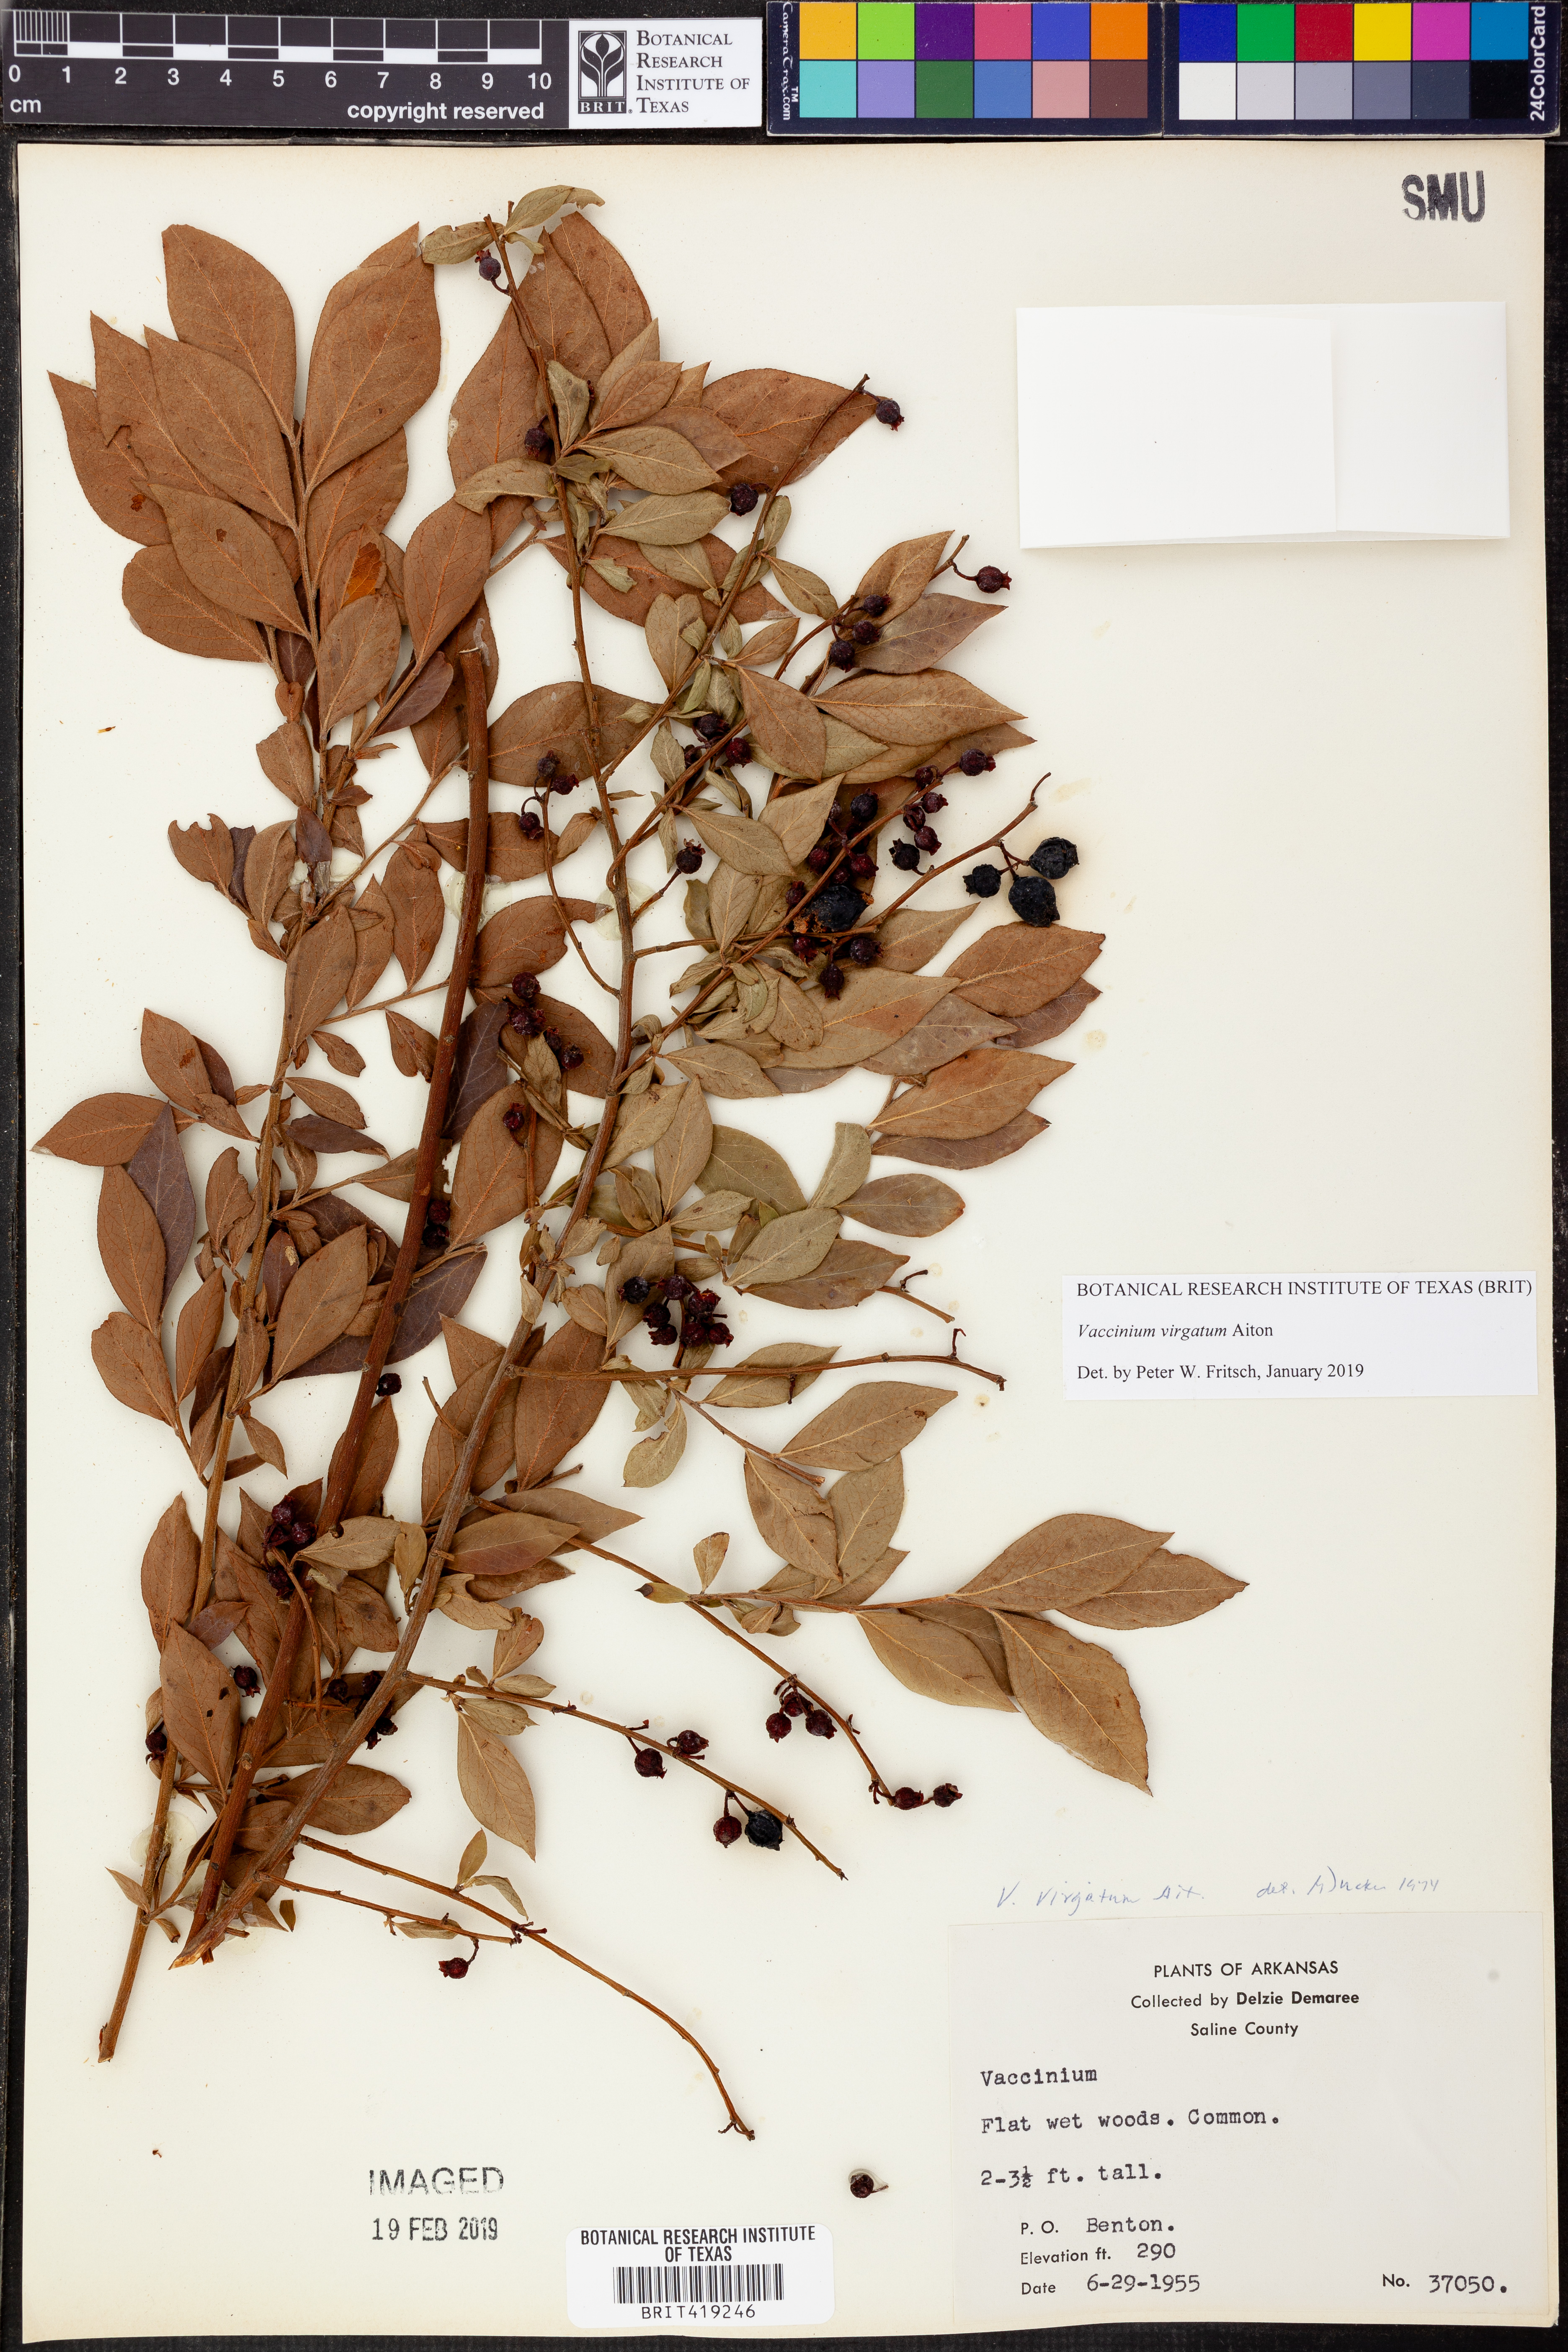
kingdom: Plantae
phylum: Tracheophyta
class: Magnoliopsida
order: Ericales
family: Ericaceae
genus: Vaccinium
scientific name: Vaccinium corymbosum
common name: Blueberry
